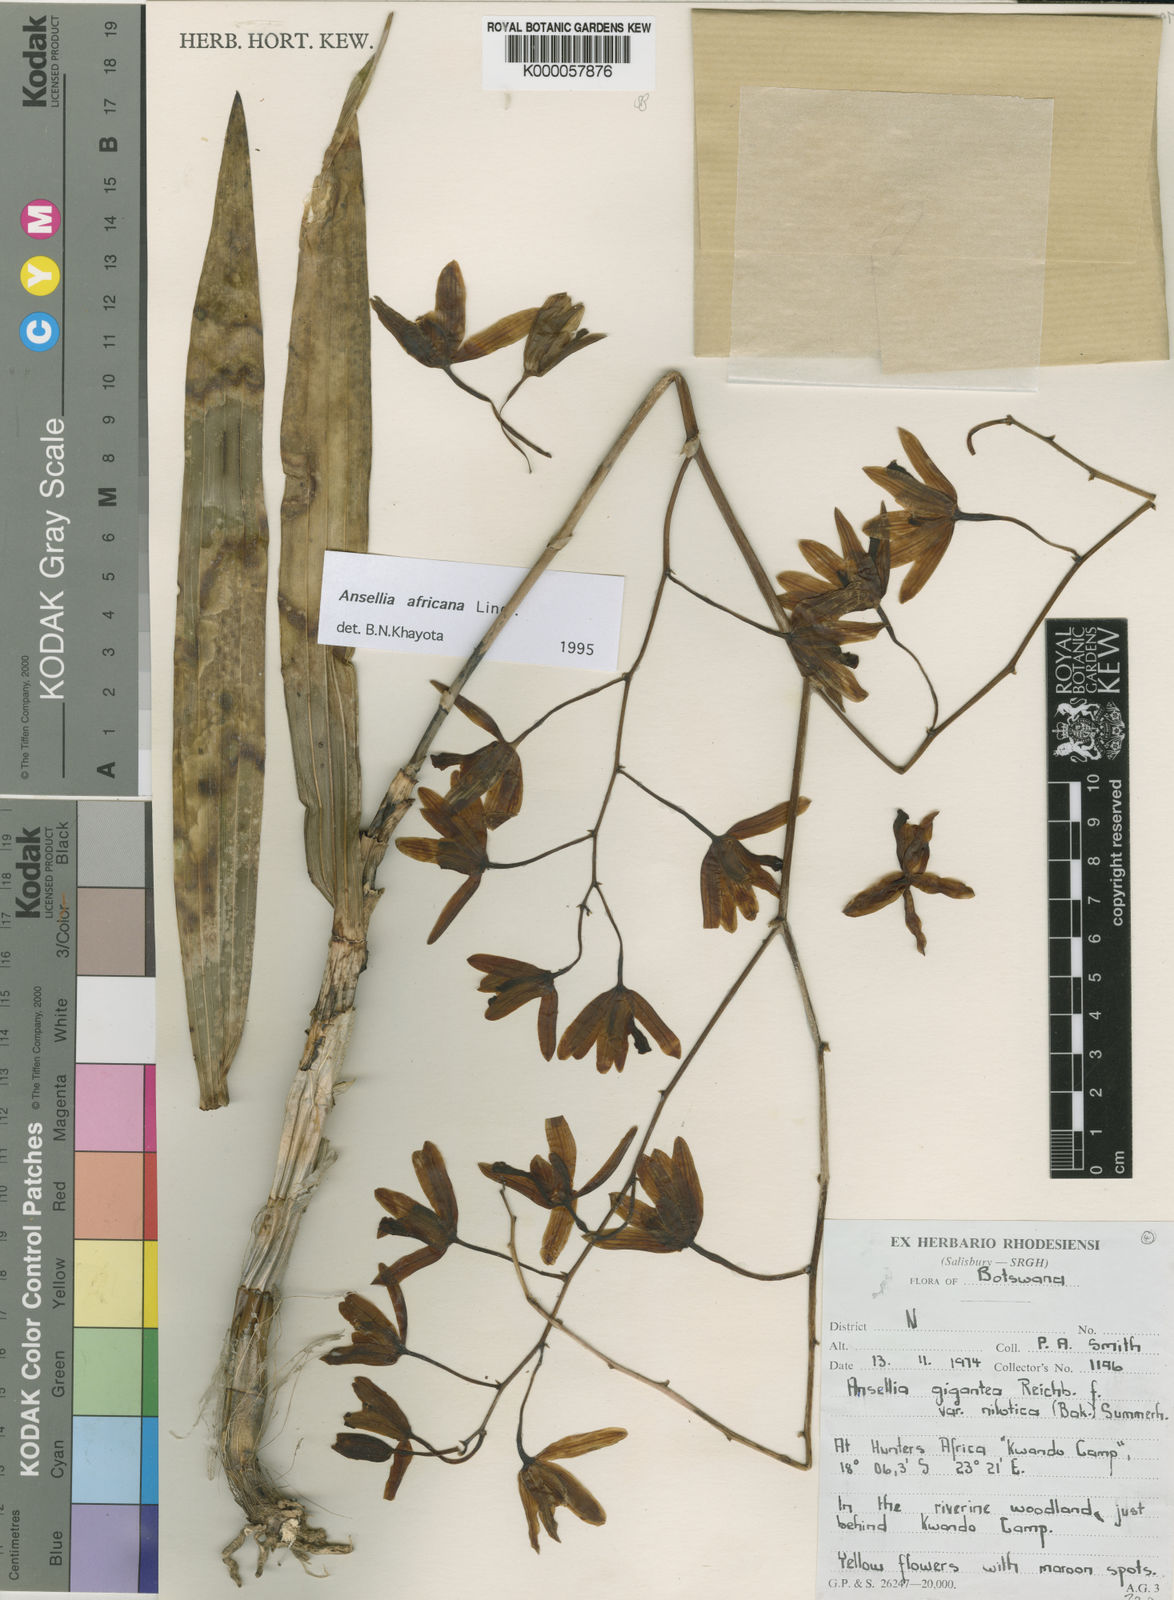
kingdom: Plantae
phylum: Tracheophyta
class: Liliopsida
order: Asparagales
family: Orchidaceae
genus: Ansellia
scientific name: Ansellia africana
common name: African ansellia
